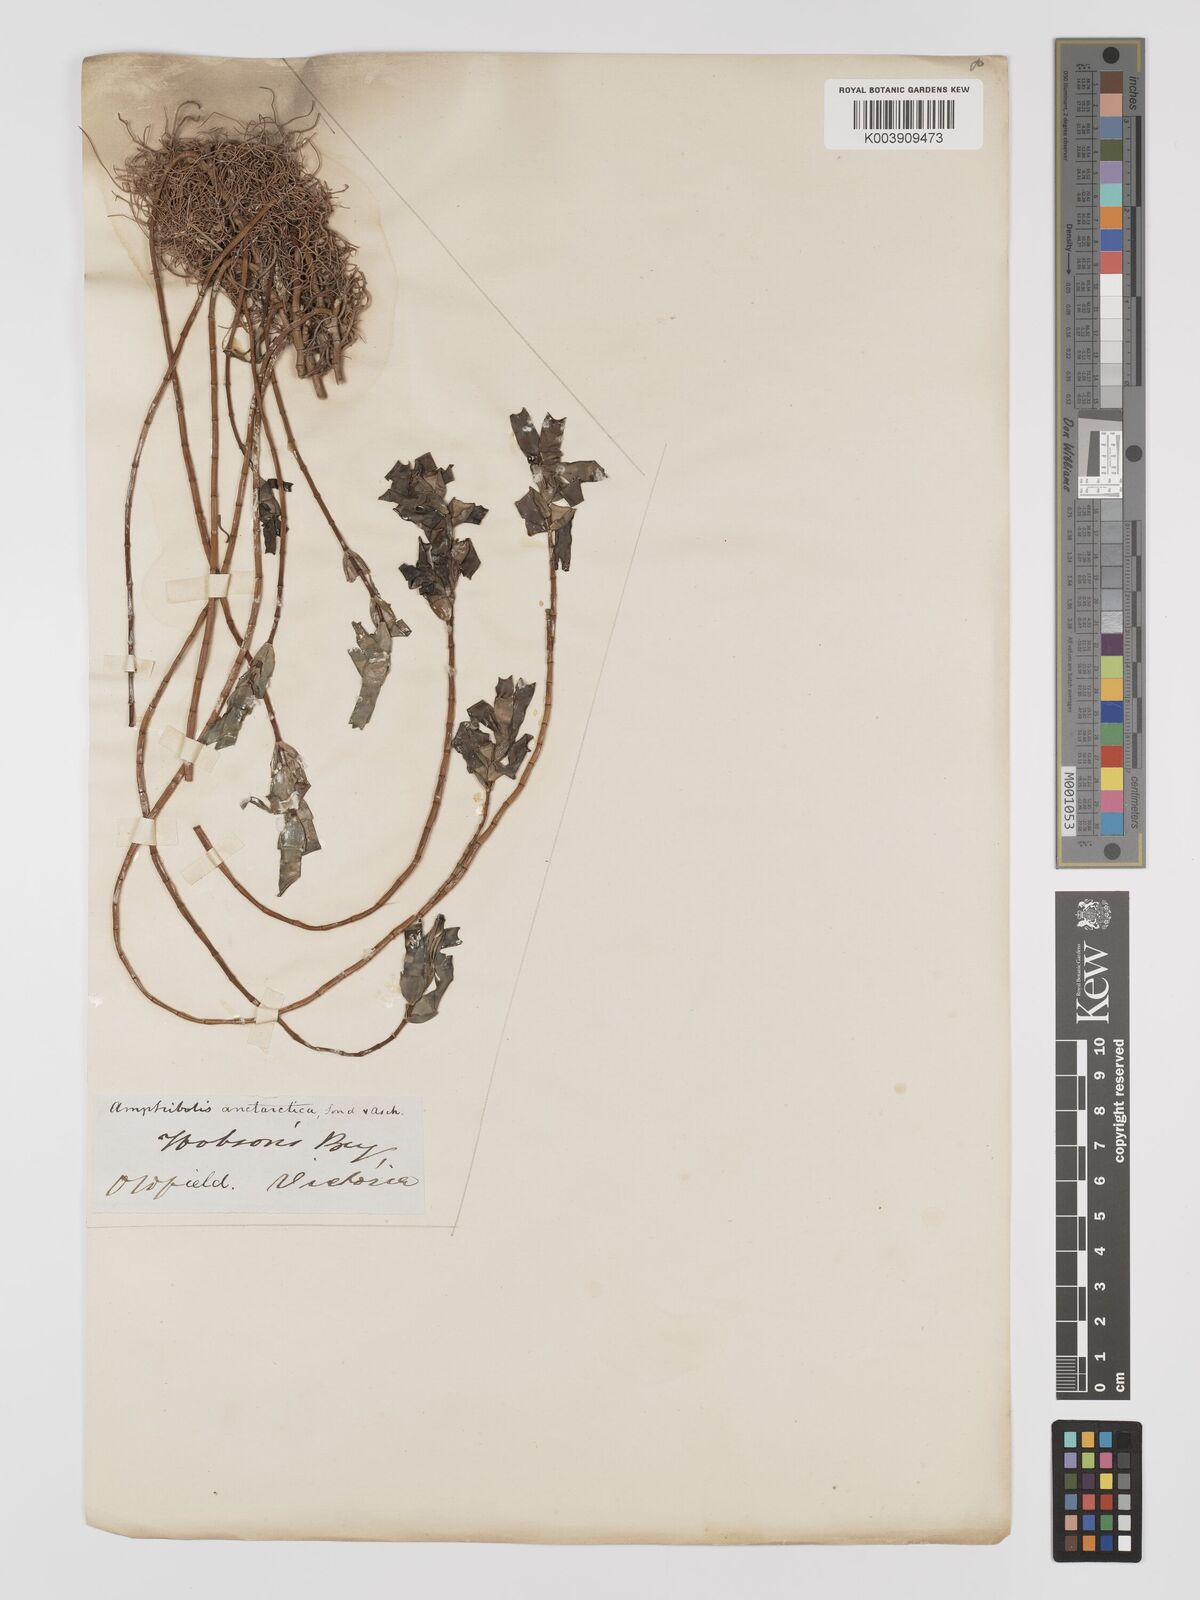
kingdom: Plantae
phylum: Tracheophyta
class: Liliopsida
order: Alismatales
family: Cymodoceaceae
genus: Amphibolis
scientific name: Amphibolis antarctica
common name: Species code: aa
